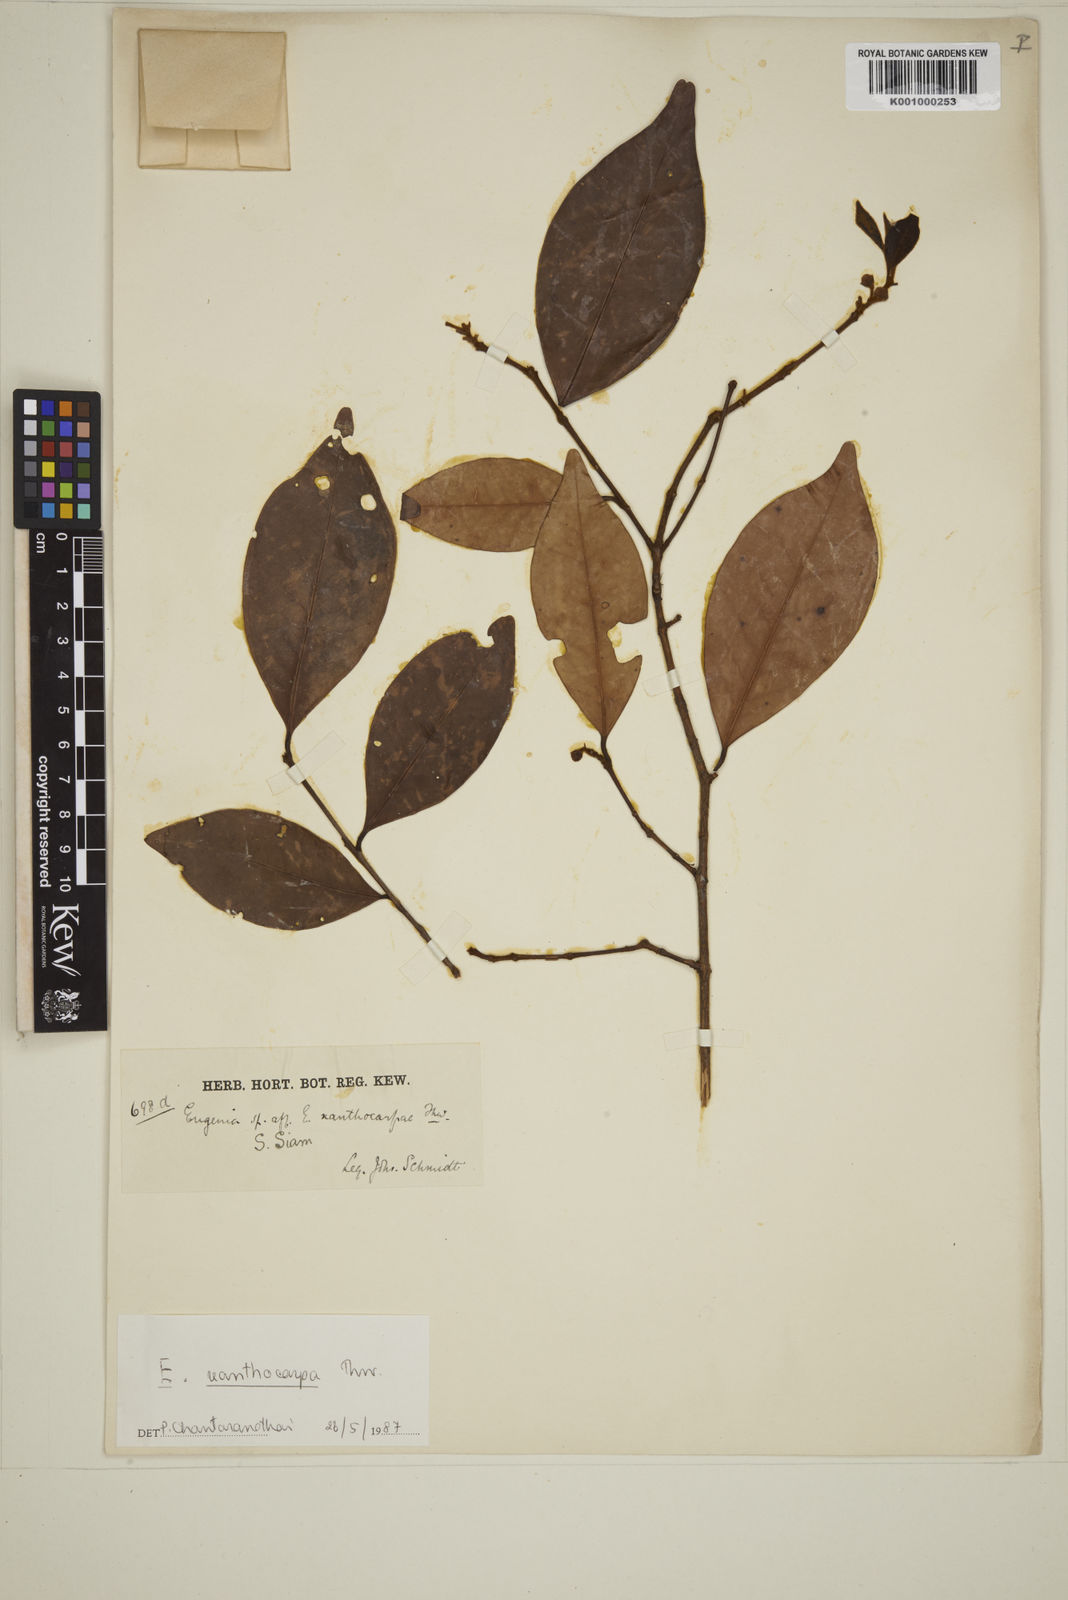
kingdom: Plantae
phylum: Tracheophyta
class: Magnoliopsida
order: Myrtales
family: Myrtaceae
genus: Campomanesia
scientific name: Campomanesia xanthocarpa
